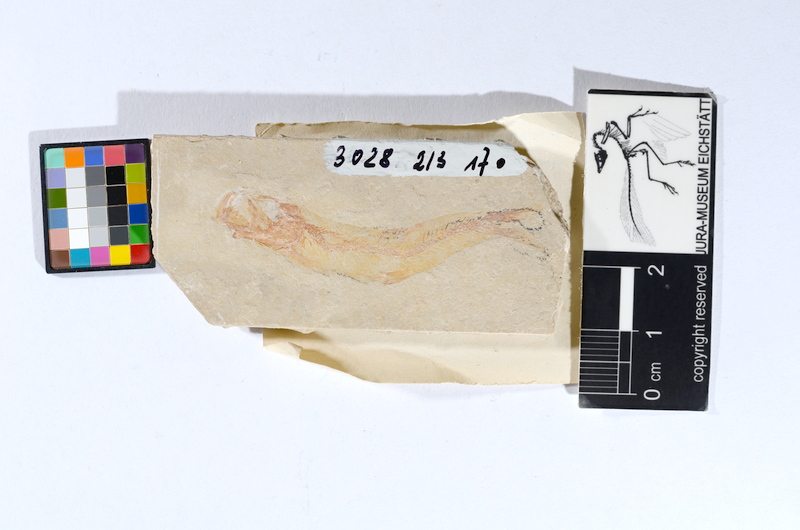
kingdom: Animalia
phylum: Chordata
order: Salmoniformes
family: Orthogonikleithridae
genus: Leptolepides
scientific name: Leptolepides sprattiformis
